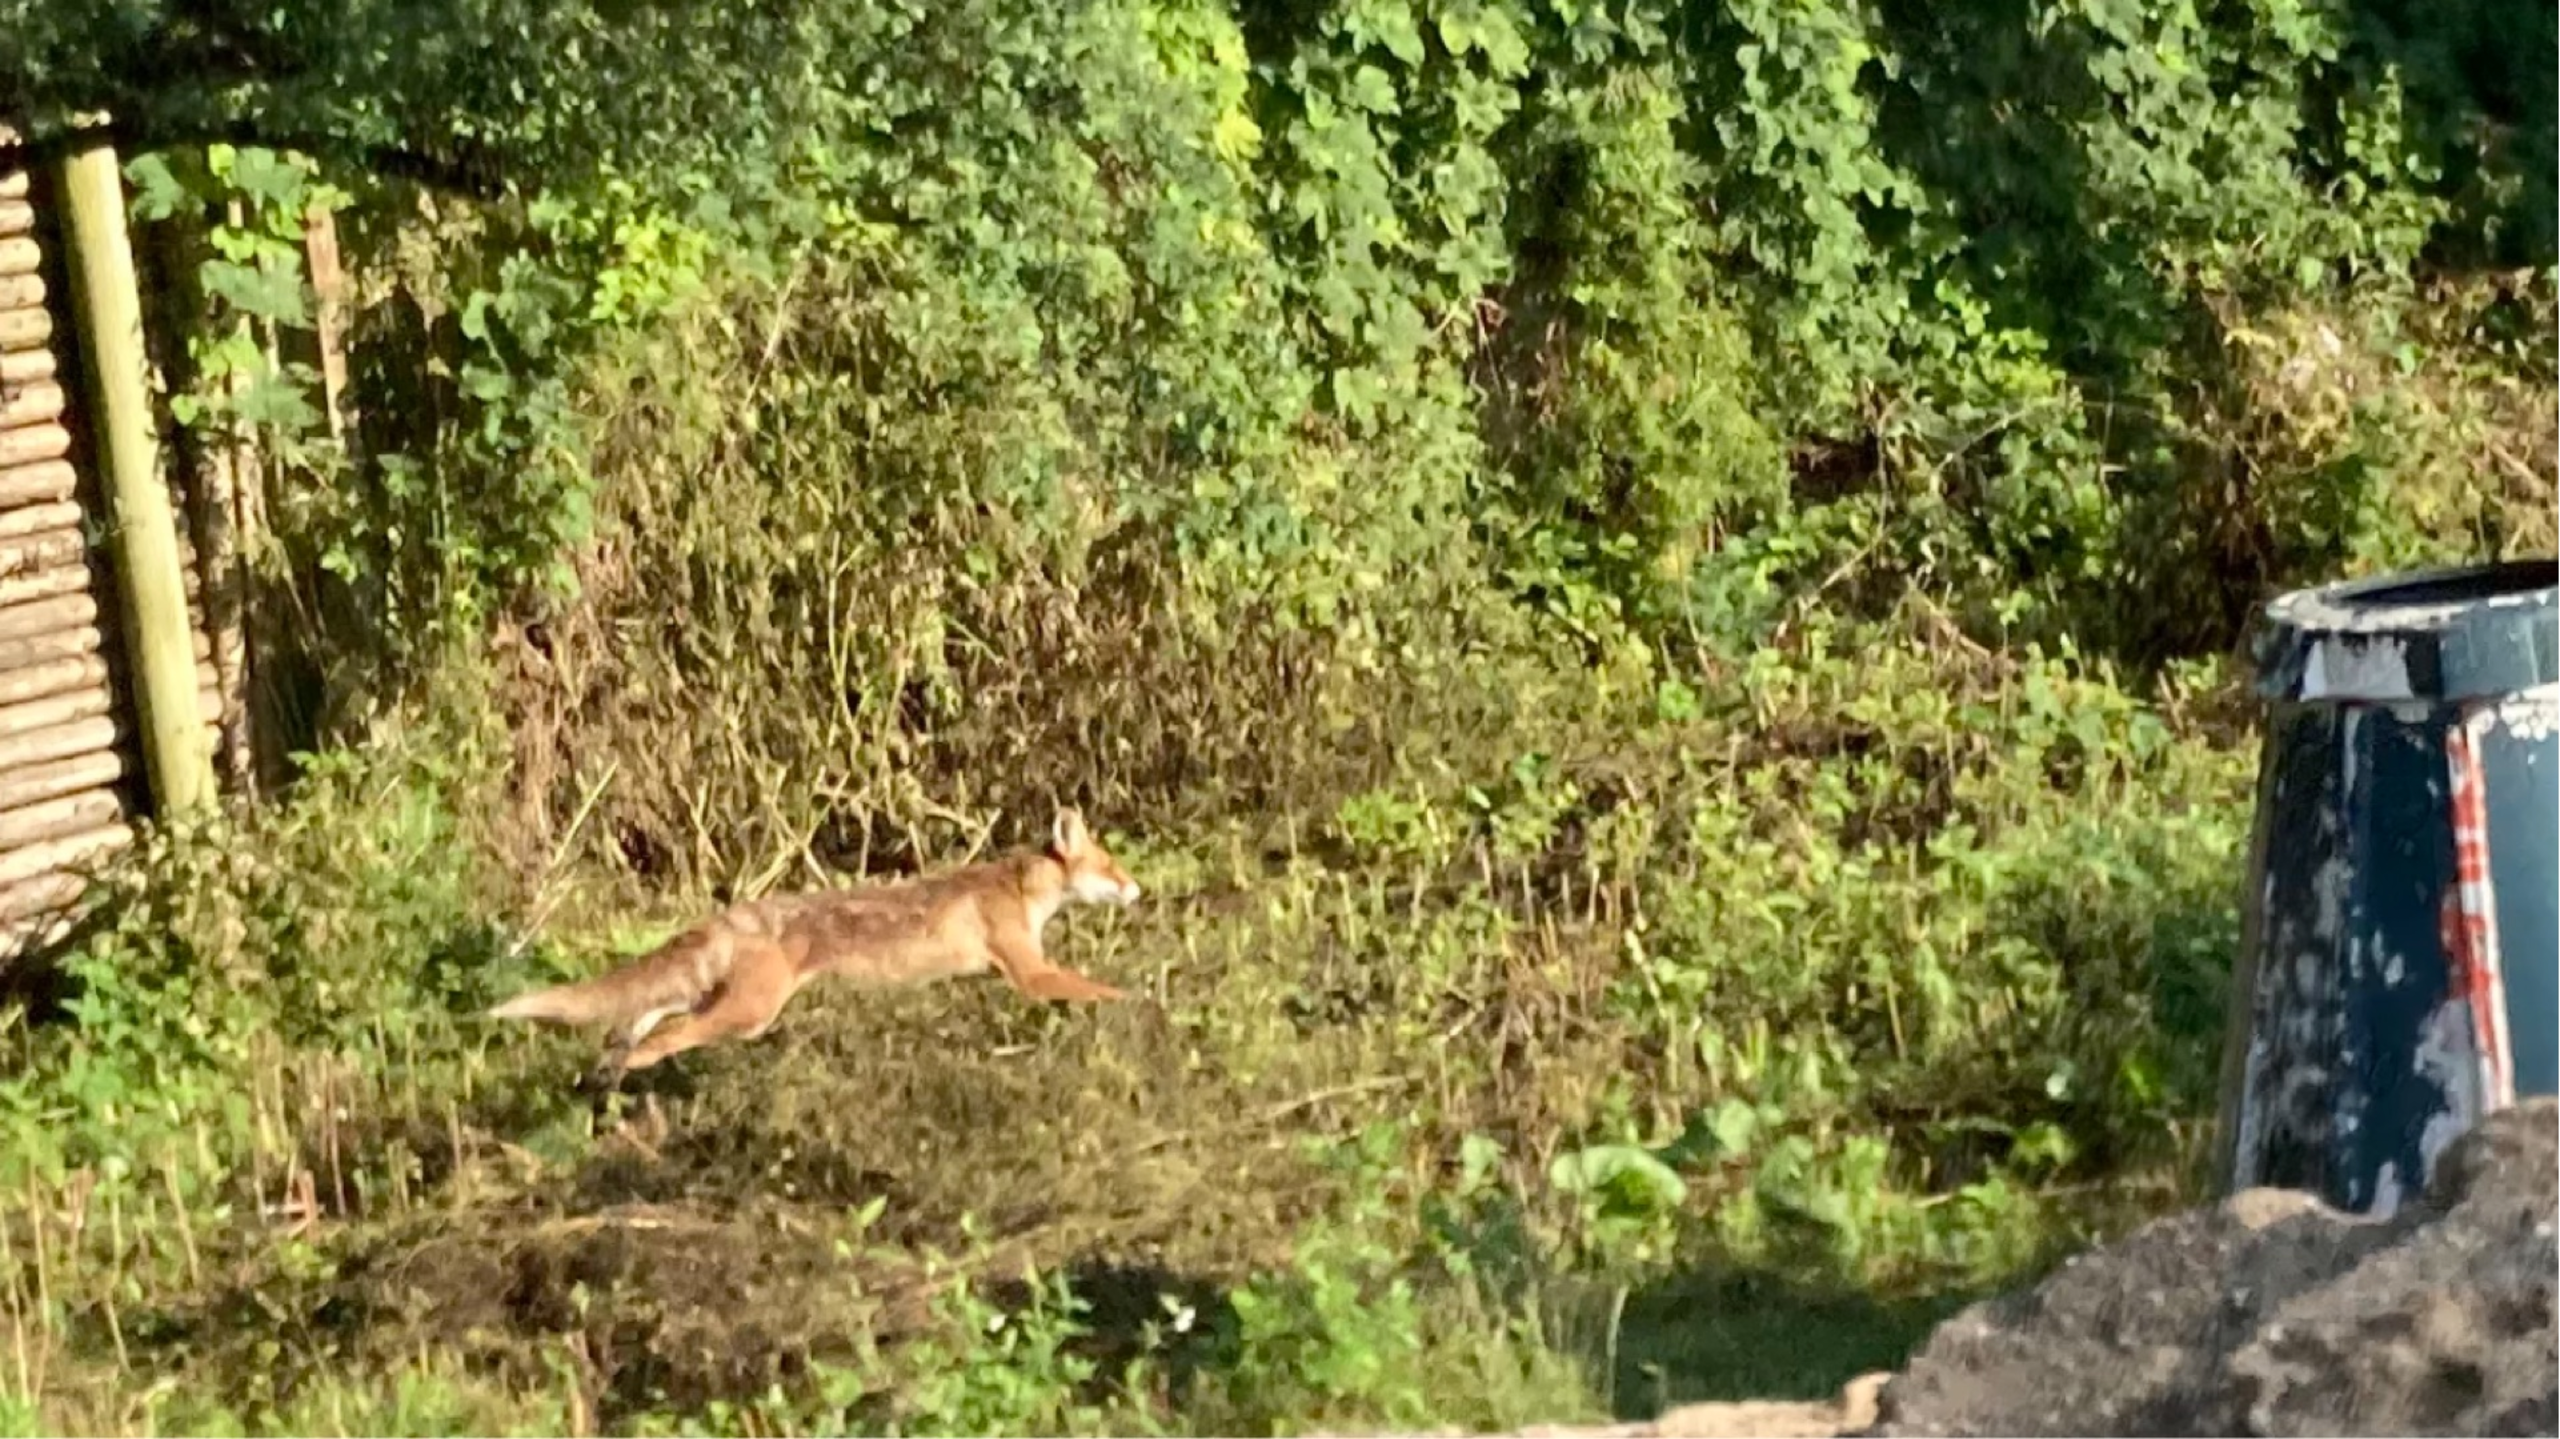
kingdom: Animalia
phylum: Chordata
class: Mammalia
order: Carnivora
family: Canidae
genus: Vulpes
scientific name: Vulpes vulpes
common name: Ræv
